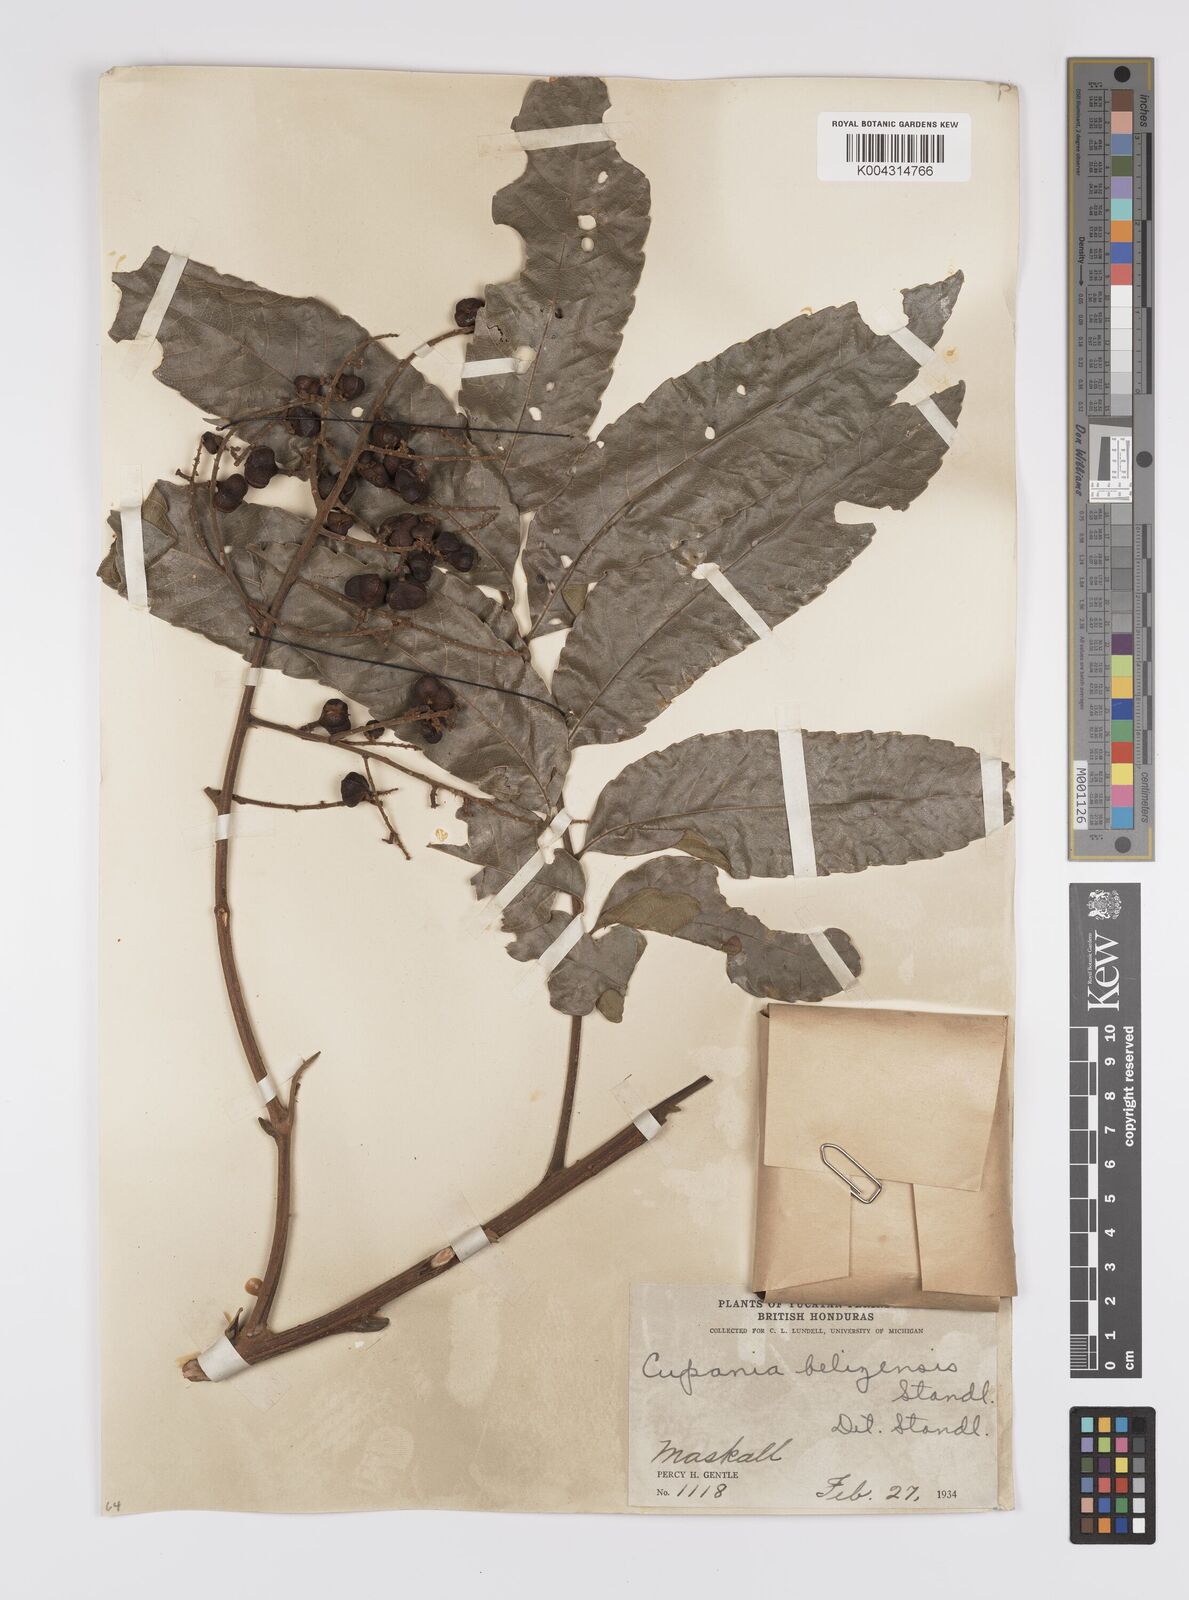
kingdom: Plantae
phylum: Tracheophyta
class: Magnoliopsida
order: Sapindales
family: Sapindaceae
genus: Cupania
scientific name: Cupania belizensis
